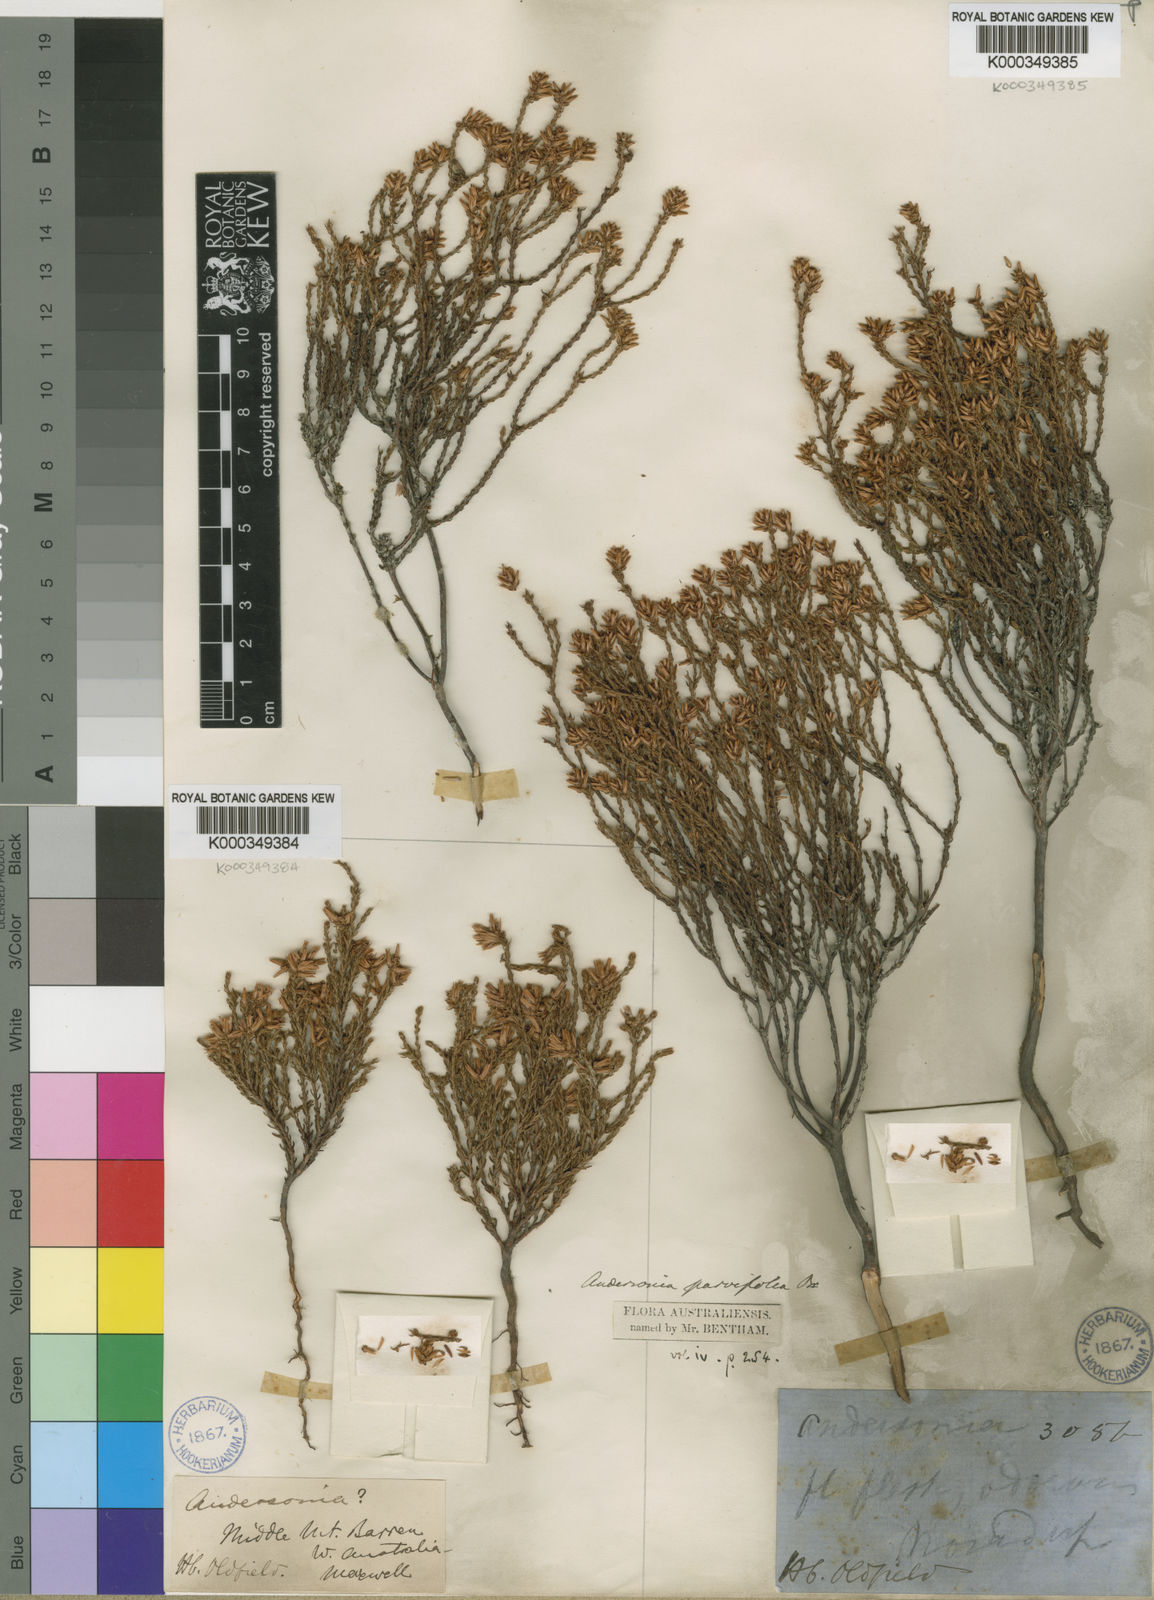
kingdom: Plantae
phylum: Tracheophyta
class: Magnoliopsida
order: Ericales
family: Ericaceae
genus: Andersonia
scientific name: Andersonia parvifolia
